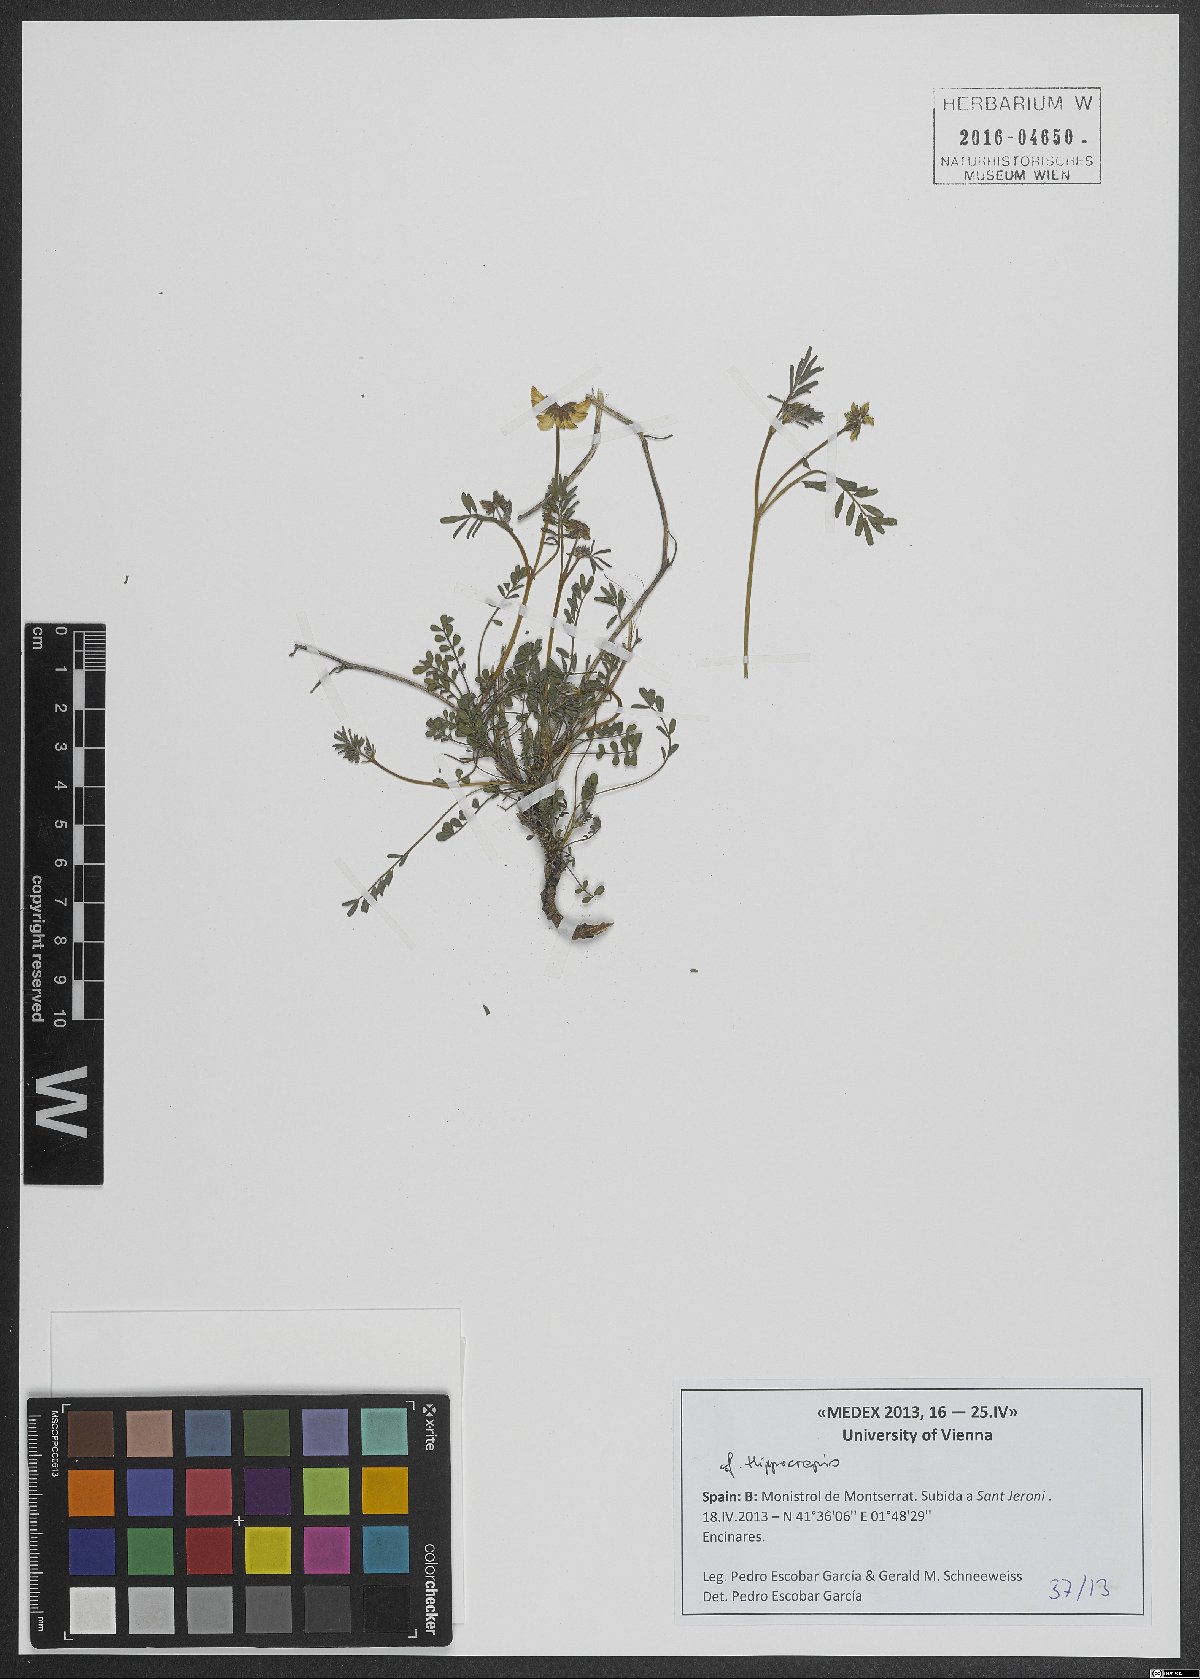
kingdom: Plantae
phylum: Tracheophyta
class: Magnoliopsida
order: Fabales
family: Fabaceae
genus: Hippocrepis
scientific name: Hippocrepis
